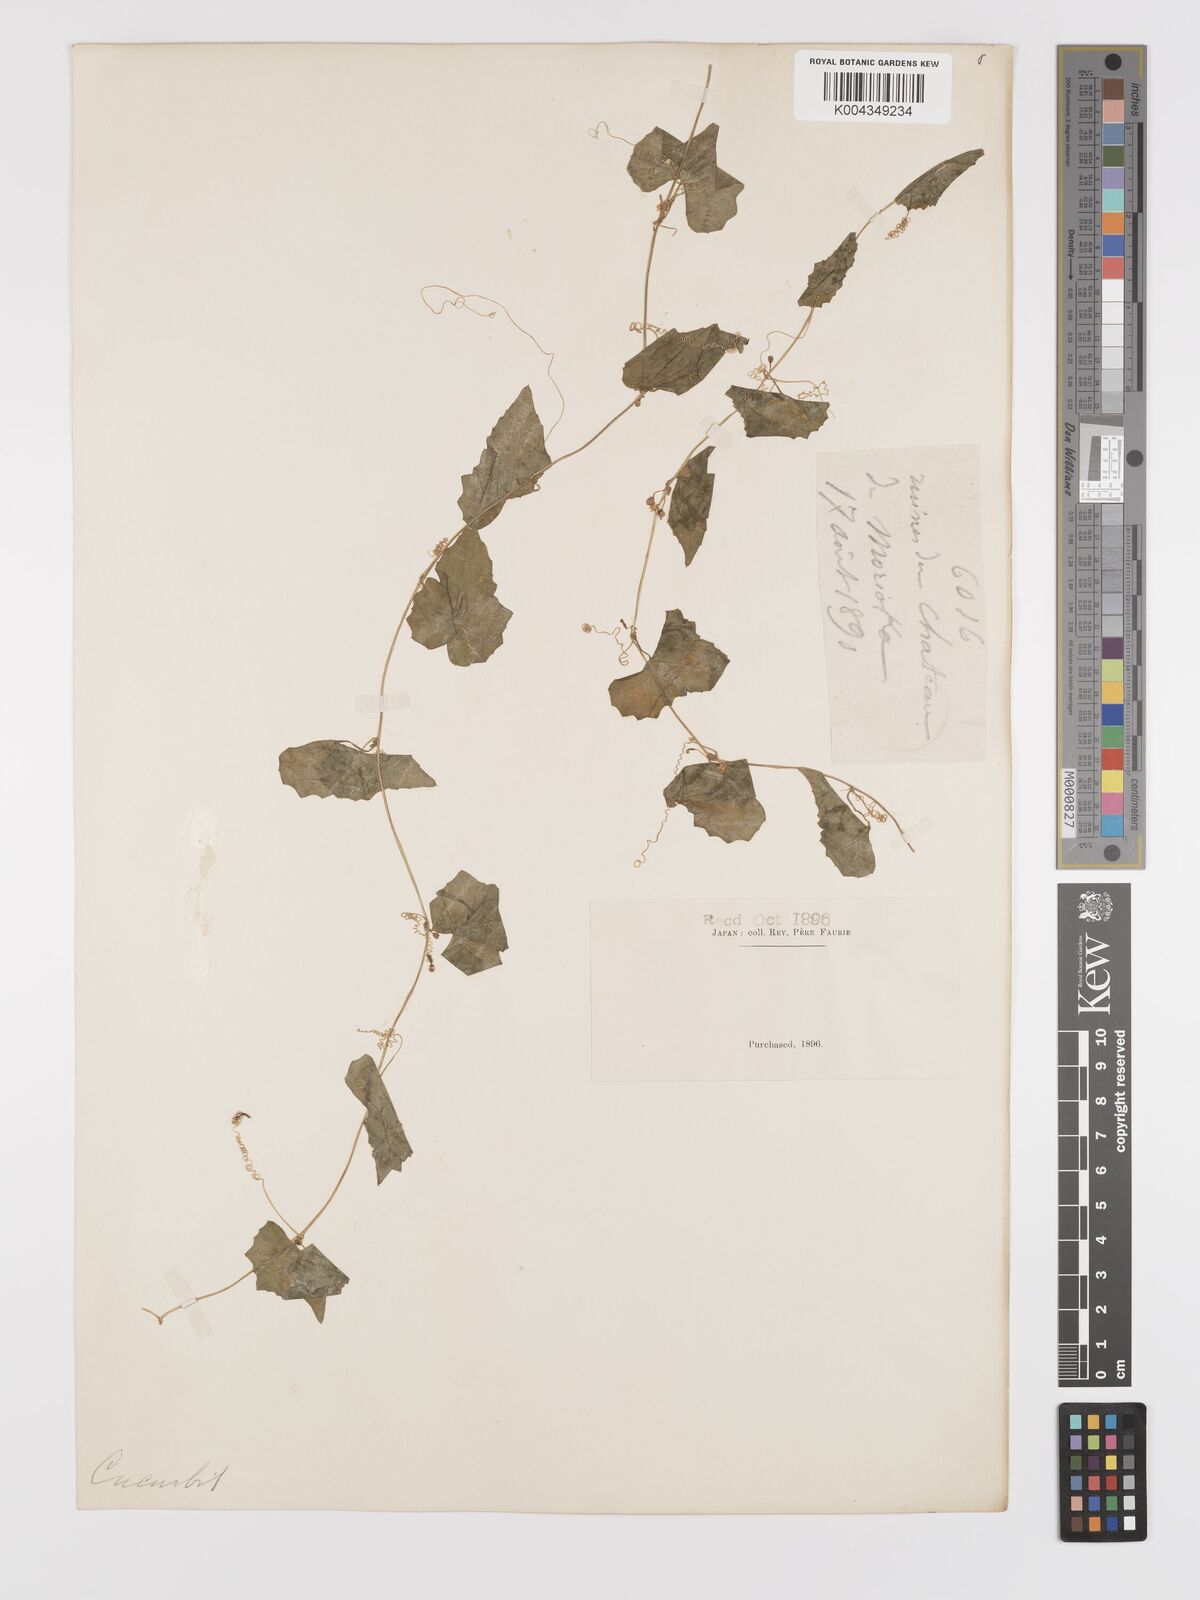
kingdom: Plantae
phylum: Tracheophyta
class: Magnoliopsida
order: Cucurbitales
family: Cucurbitaceae
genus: Zehneria
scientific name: Zehneria japonica
